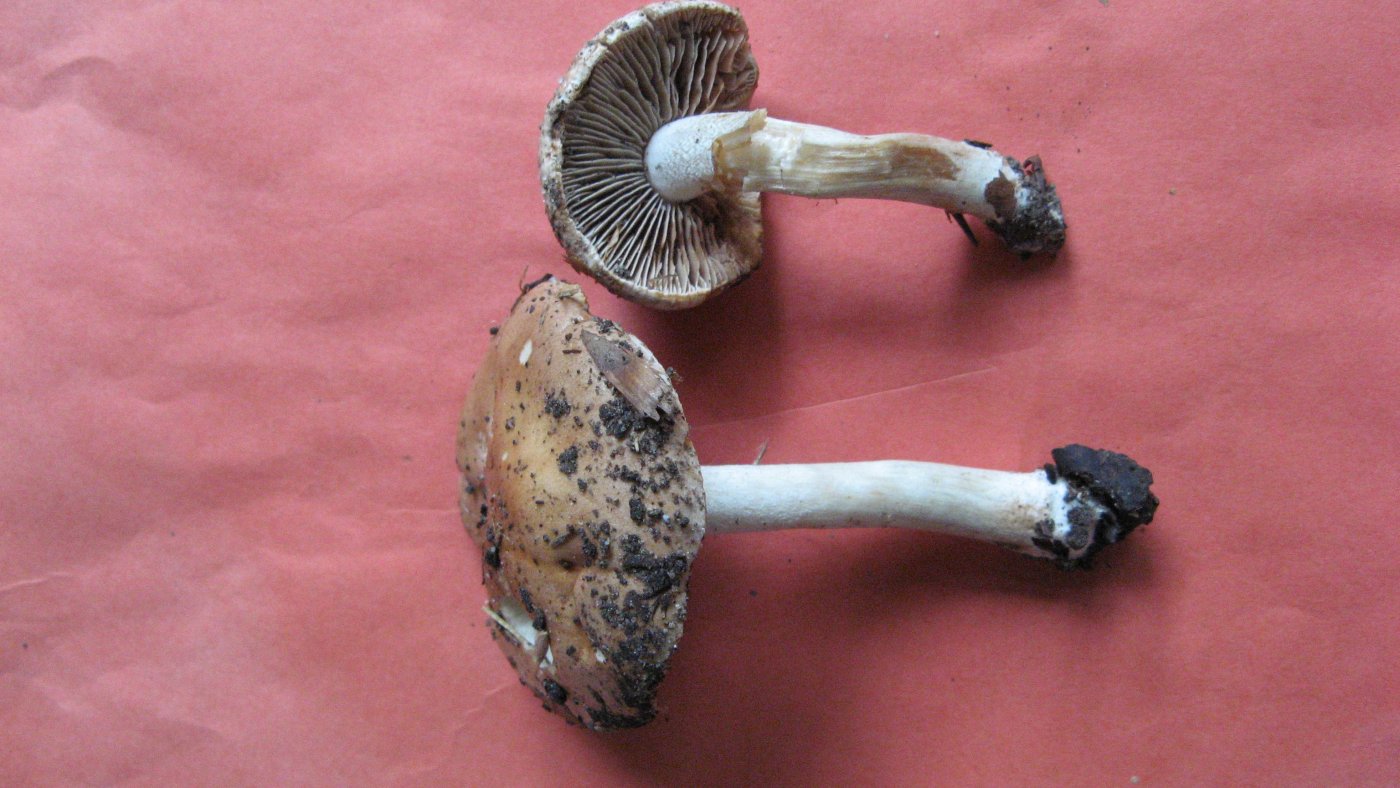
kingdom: Fungi
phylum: Basidiomycota
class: Agaricomycetes
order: Agaricales
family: Hymenogastraceae
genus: Hebeloma
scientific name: Hebeloma aestivale
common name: sommer-tåreblad
